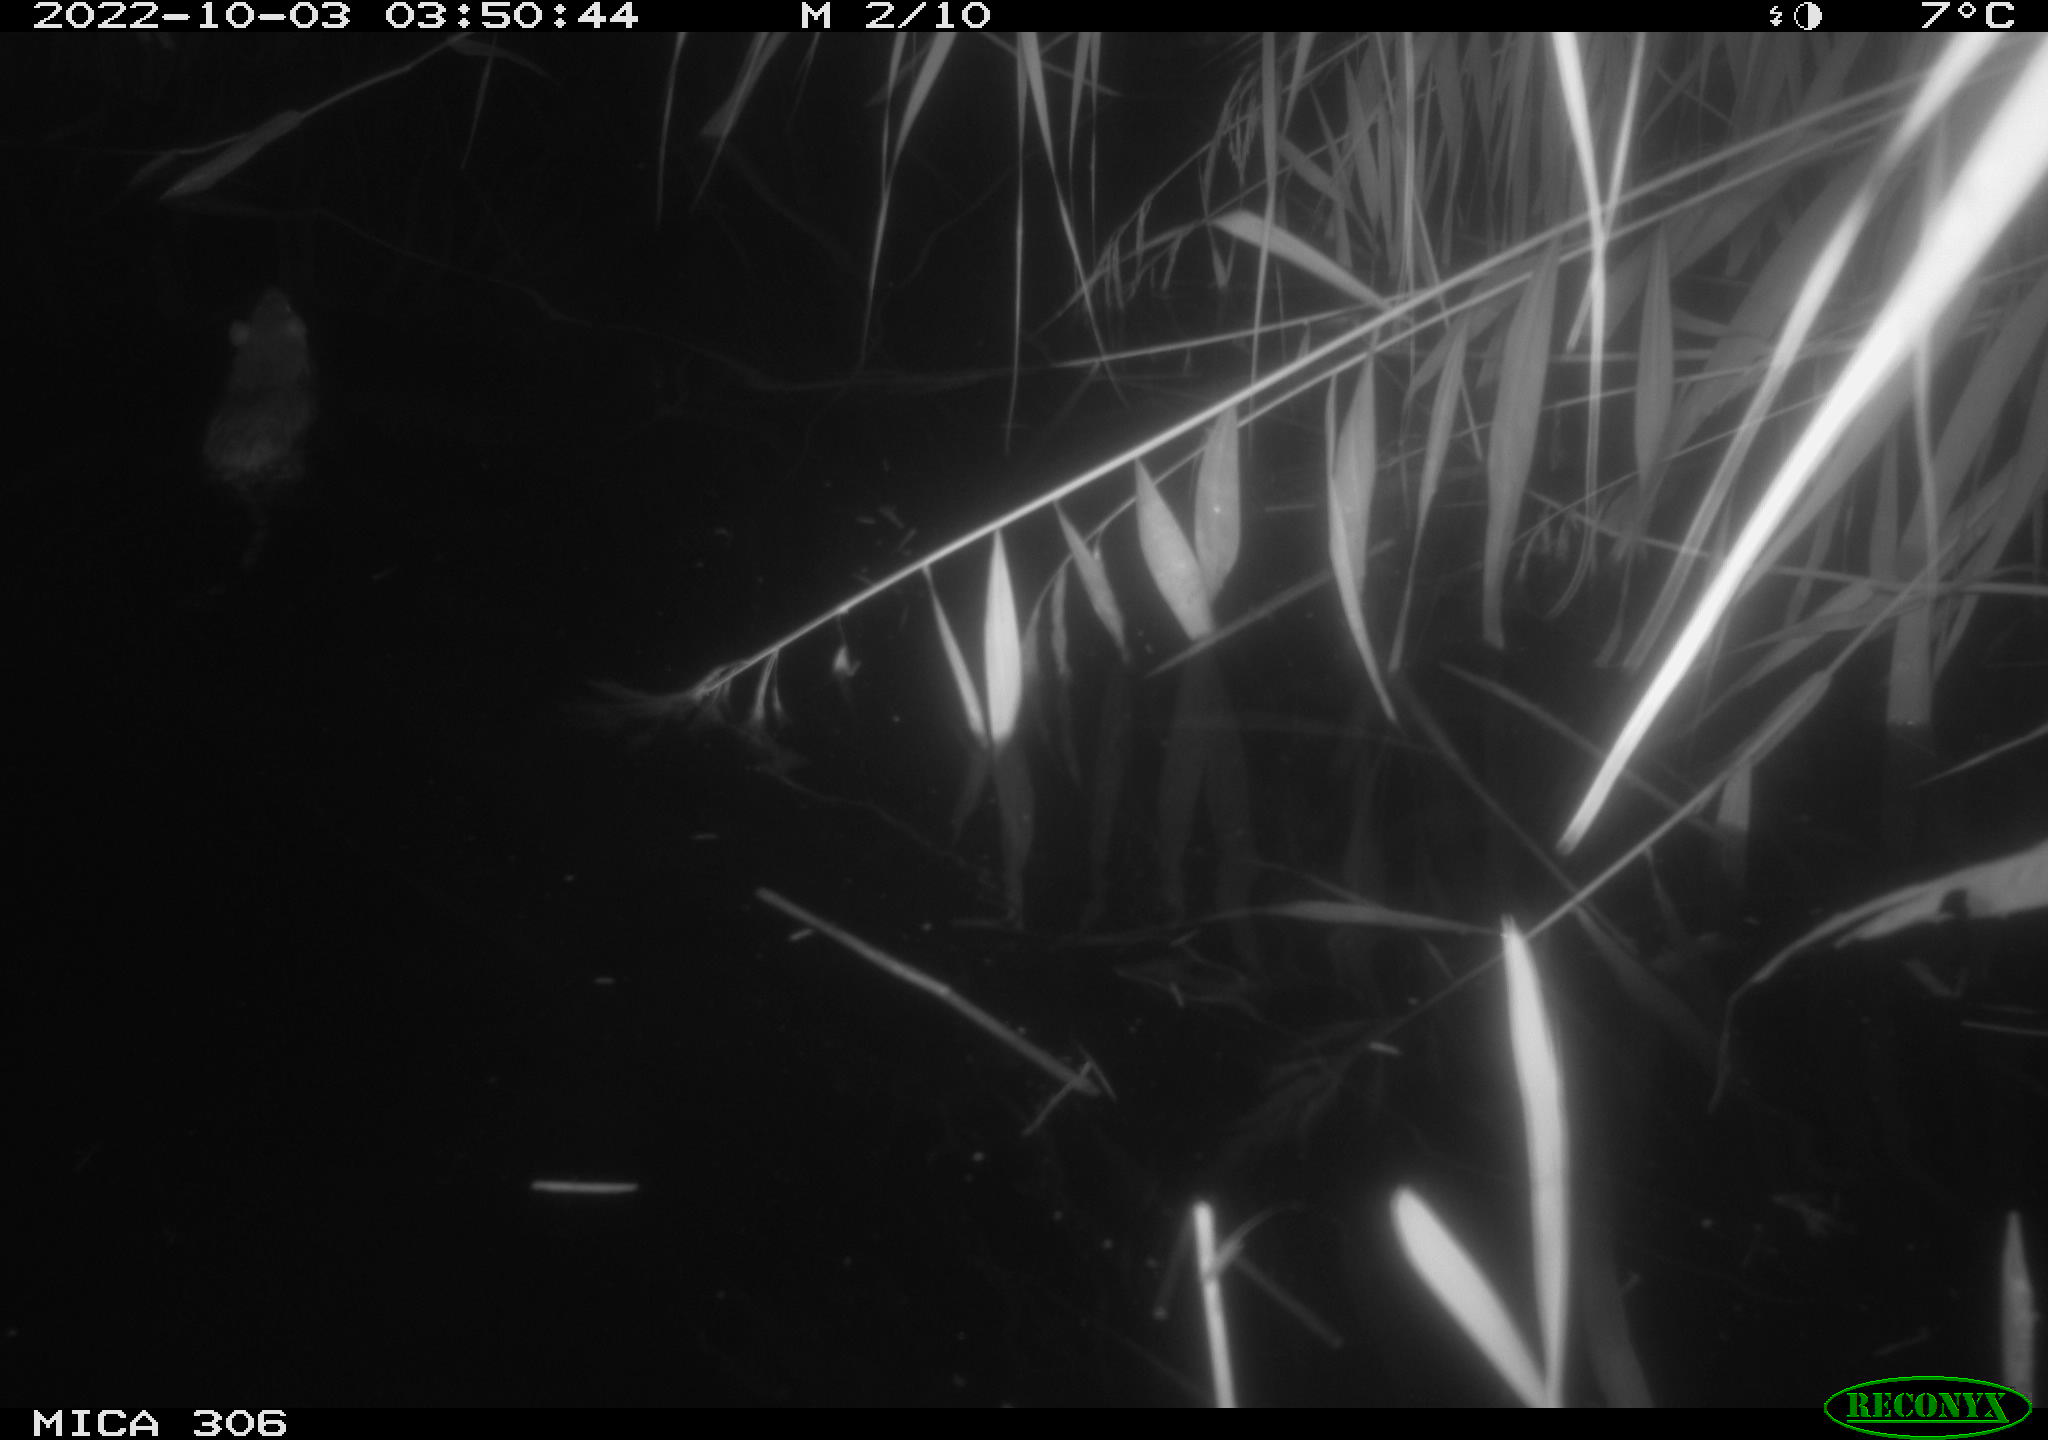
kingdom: Animalia
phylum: Chordata
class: Mammalia
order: Rodentia
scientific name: Rodentia
